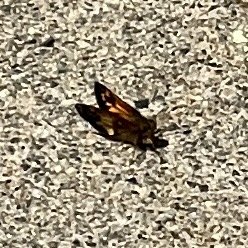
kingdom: Animalia
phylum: Arthropoda
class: Insecta
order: Lepidoptera
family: Hesperiidae
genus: Lon
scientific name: Lon hobomok
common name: Hobomok Skipper
